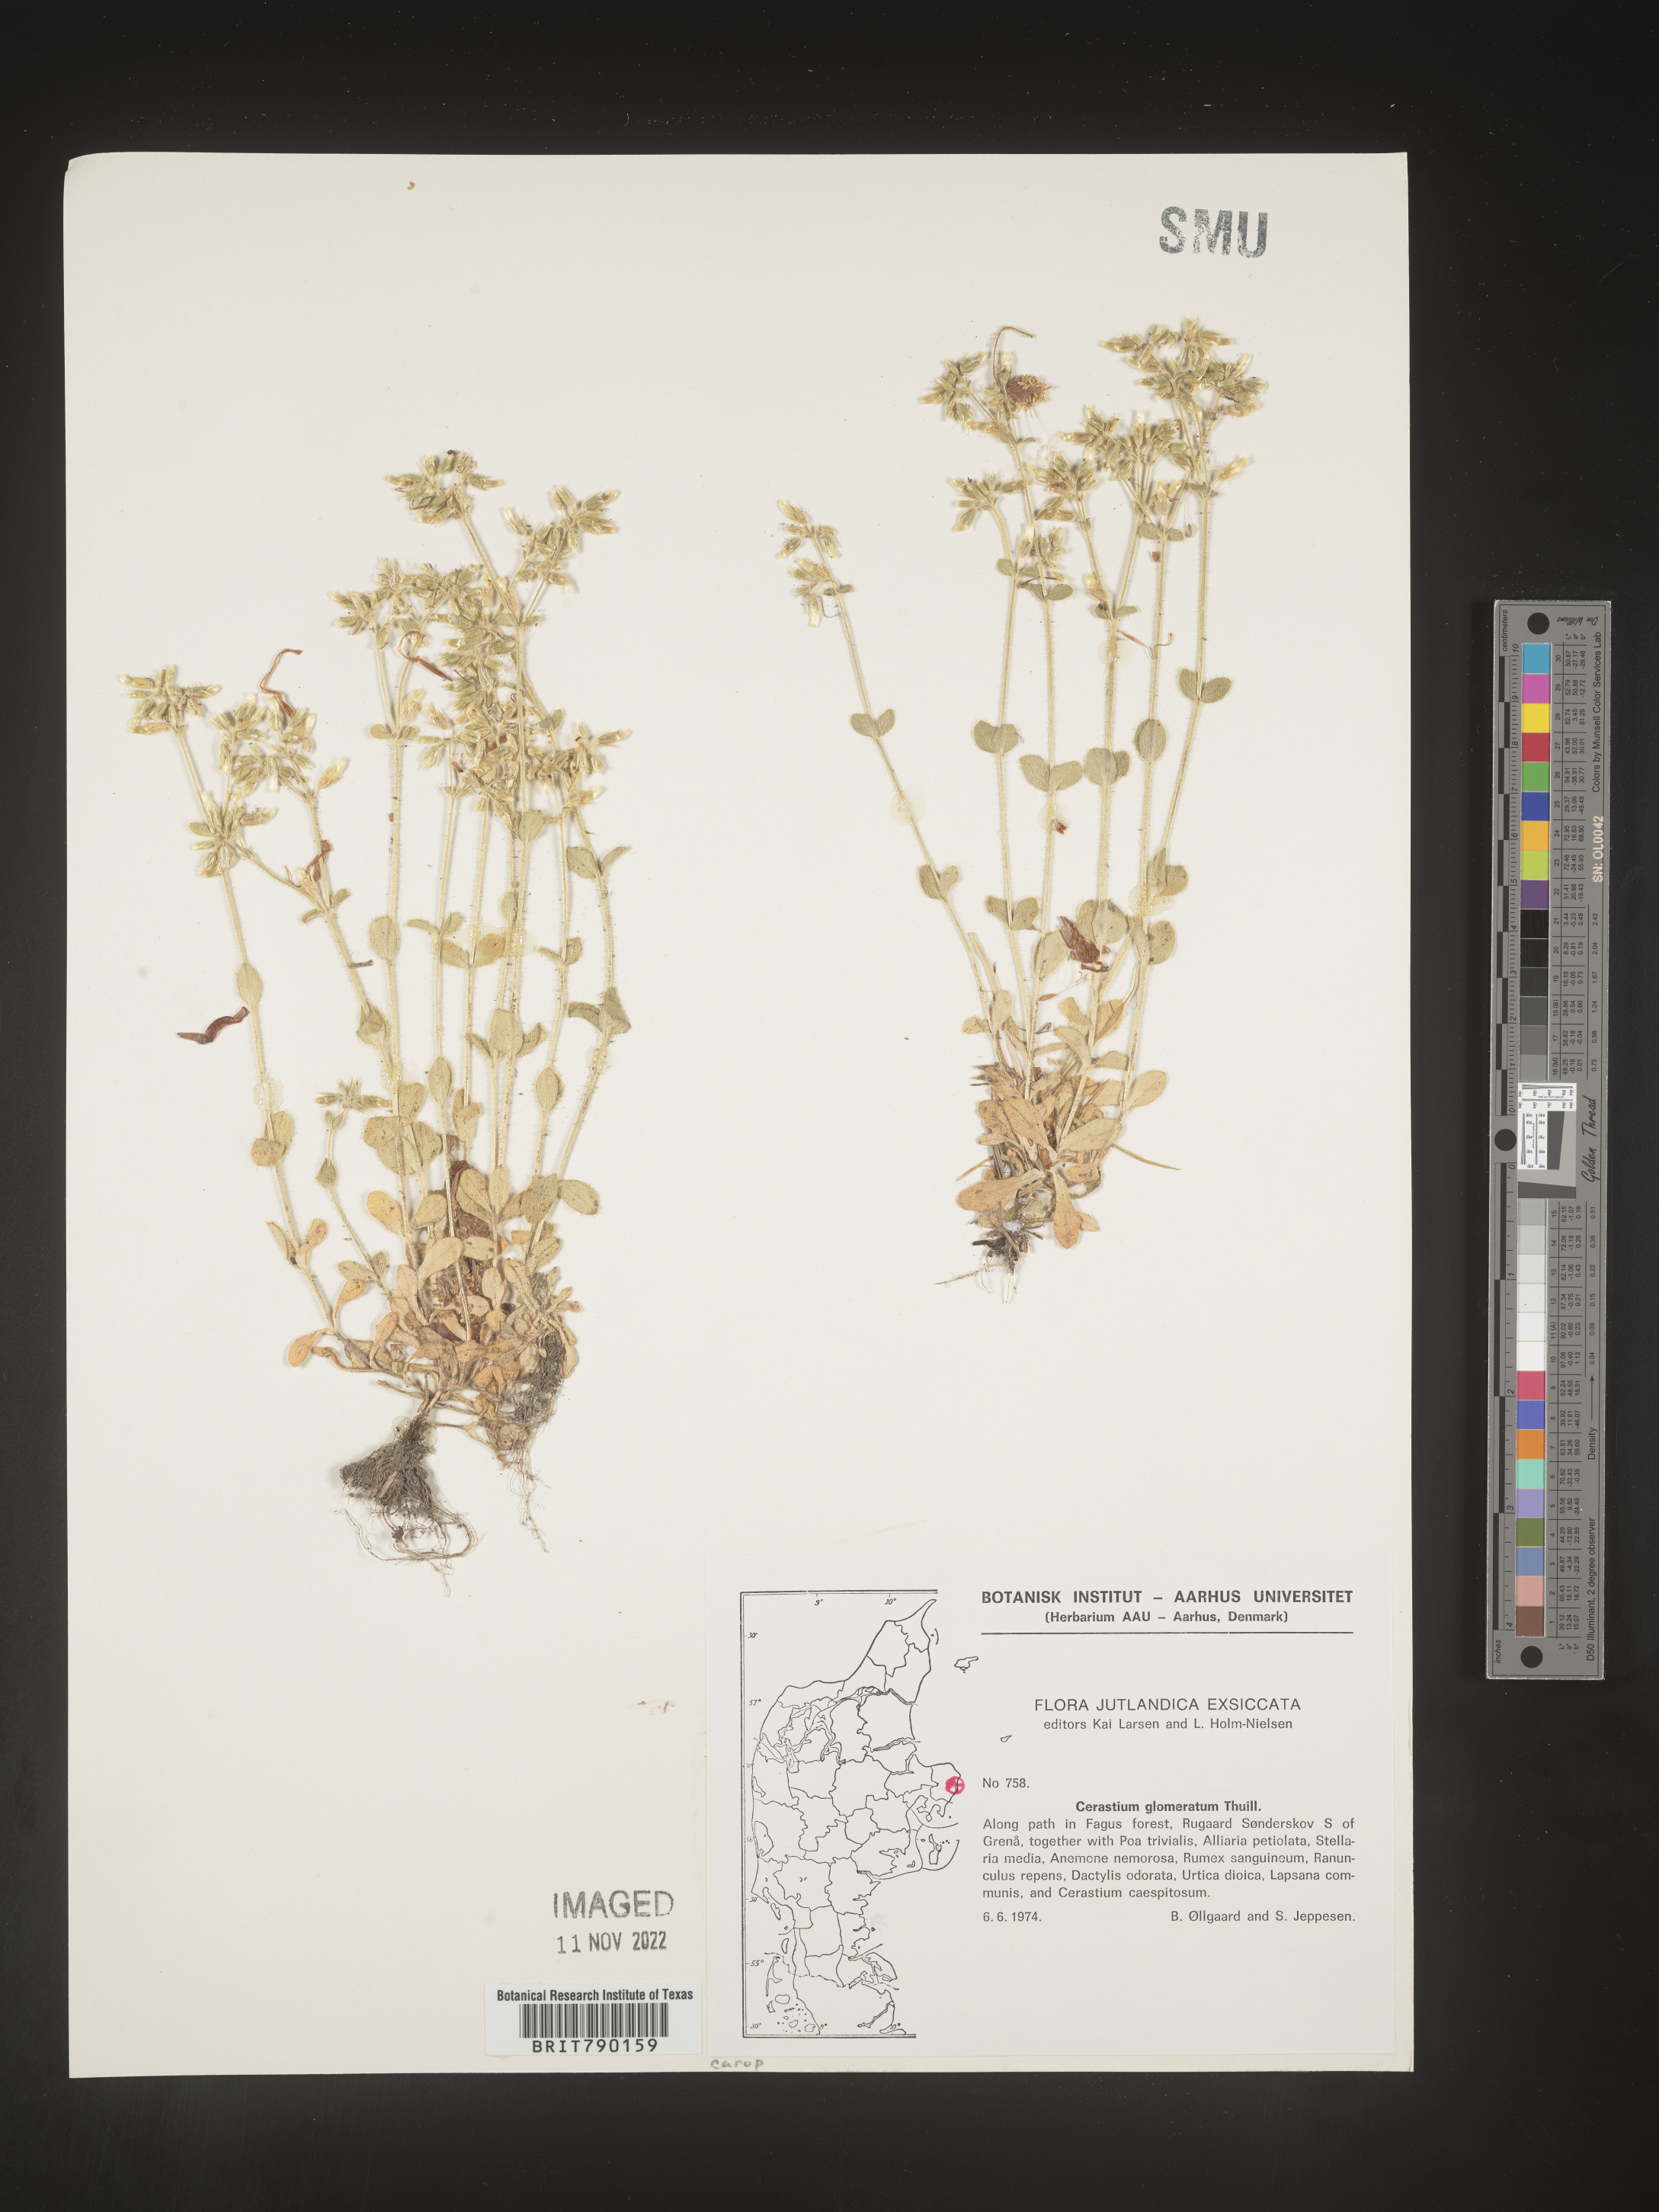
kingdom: Plantae
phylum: Tracheophyta
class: Magnoliopsida
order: Caryophyllales
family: Caryophyllaceae
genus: Cerastium
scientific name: Cerastium
